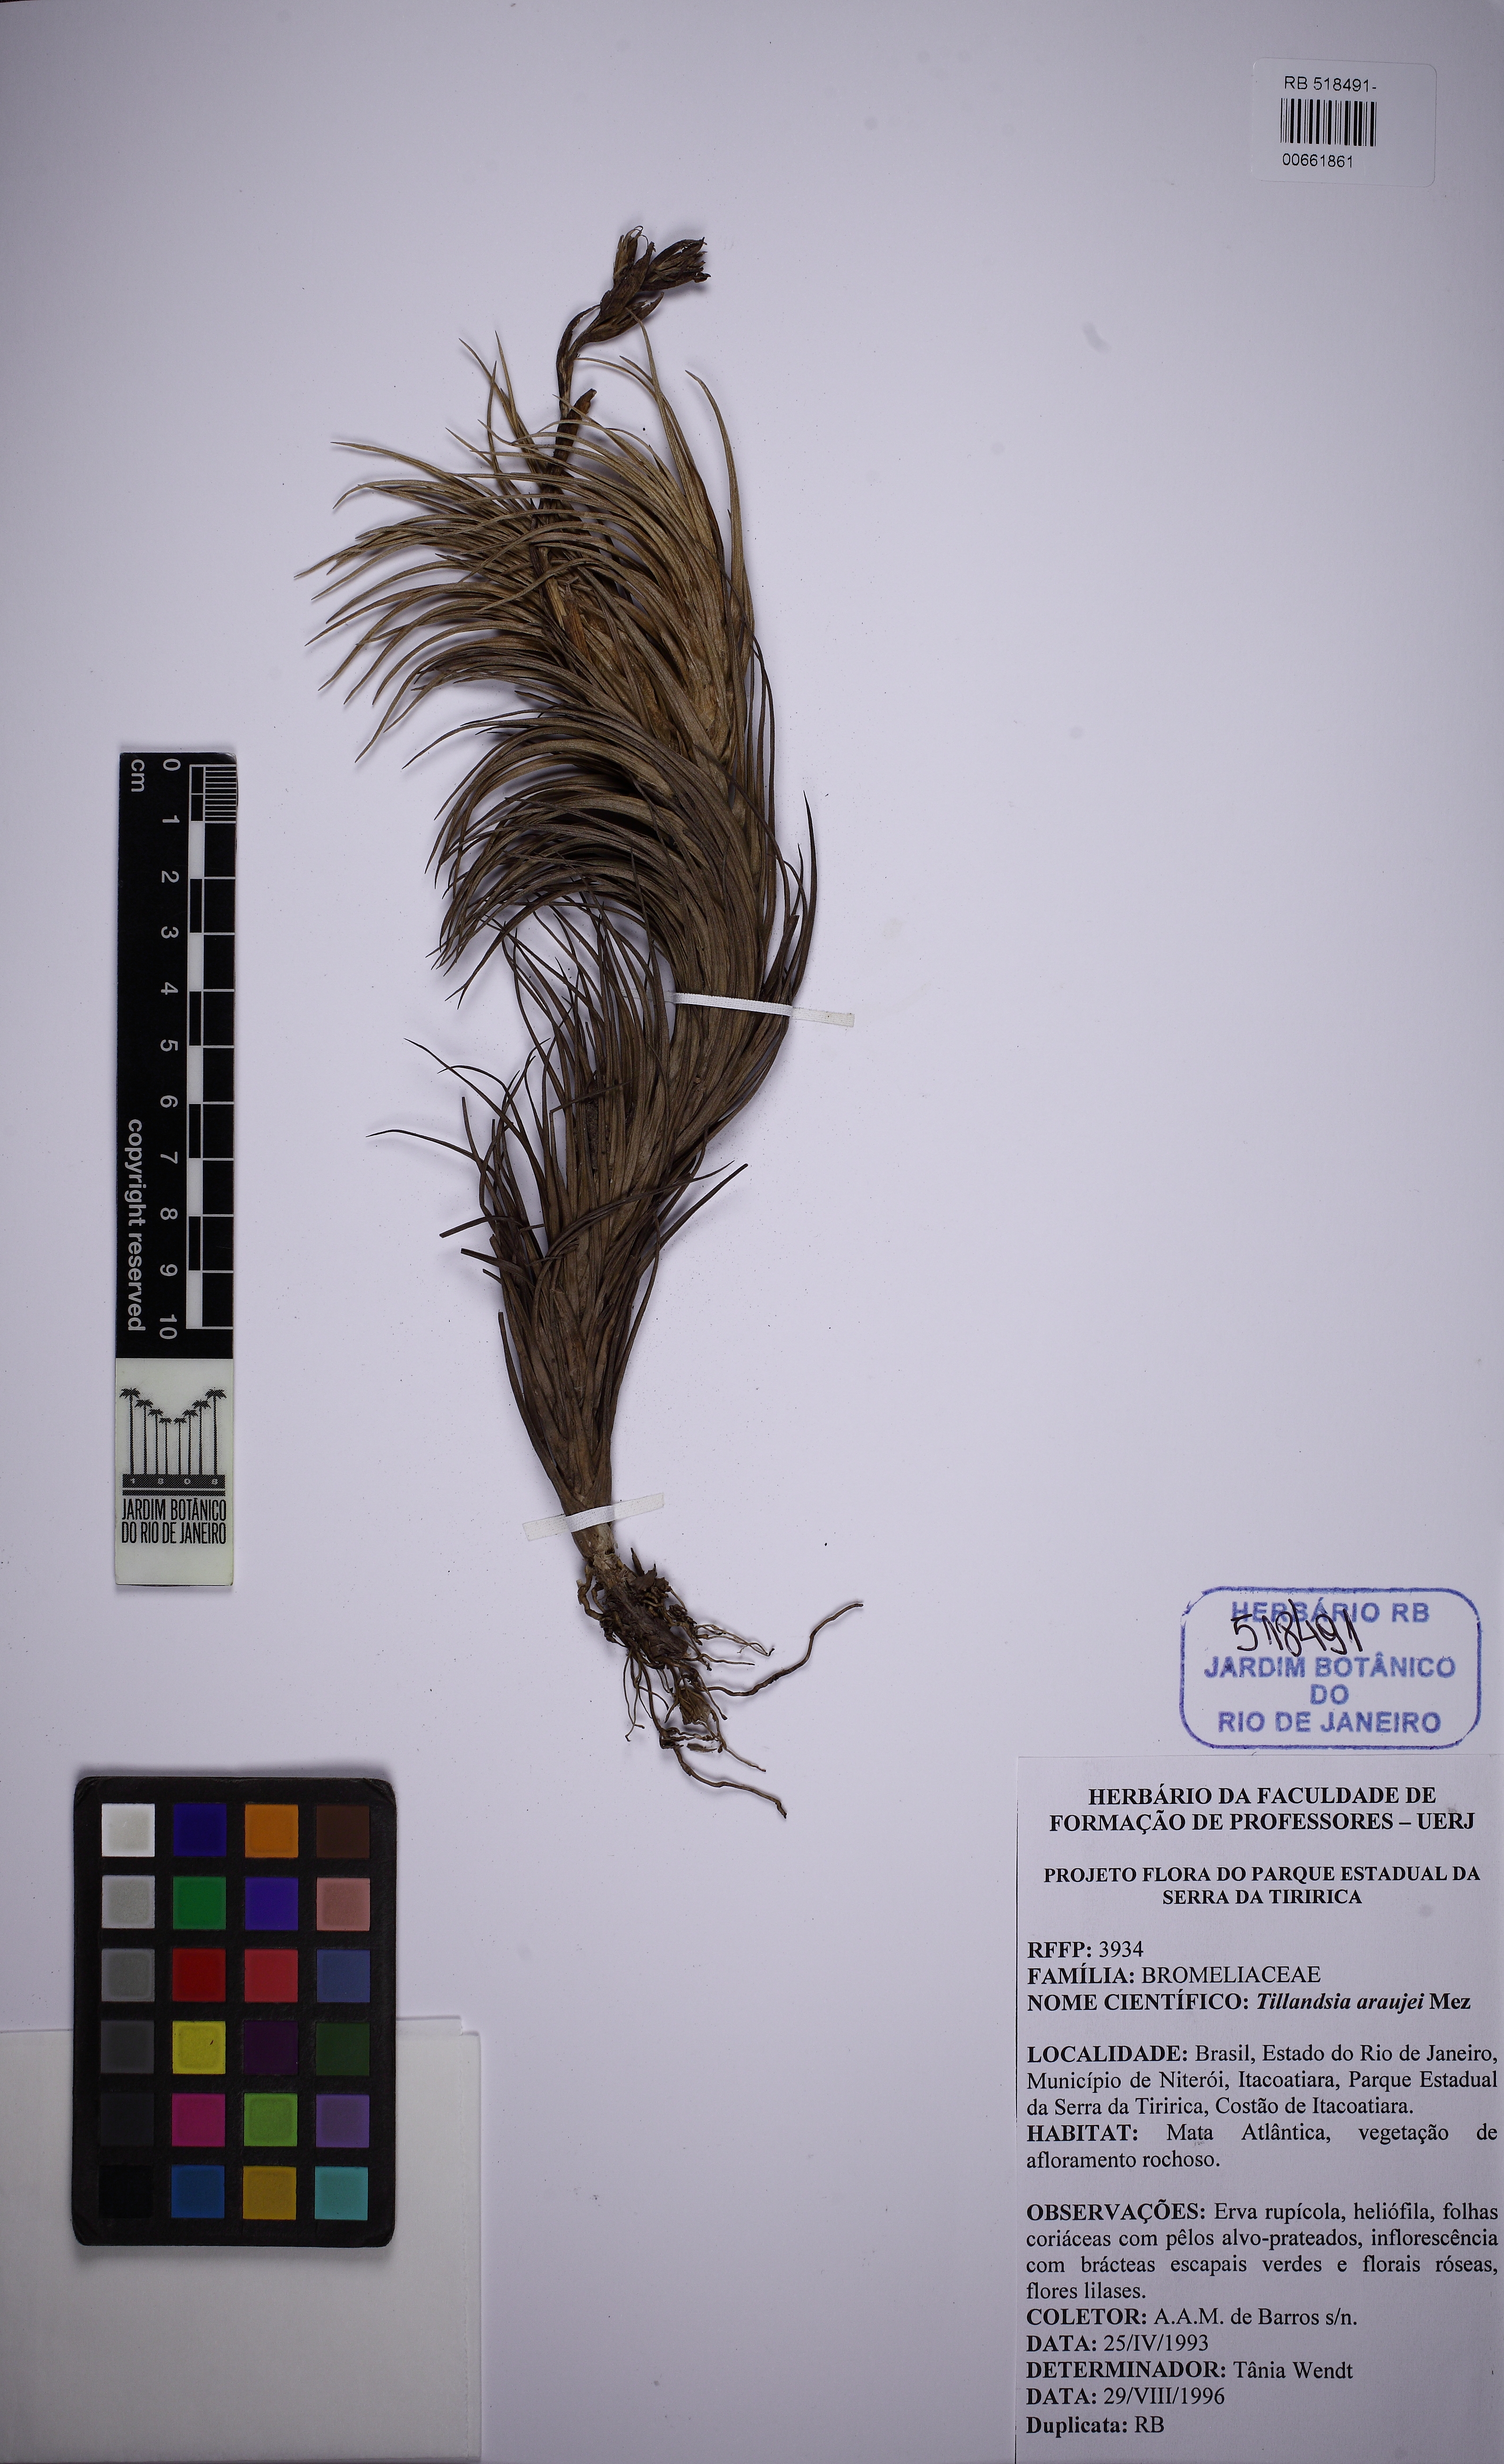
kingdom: Plantae
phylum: Tracheophyta
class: Liliopsida
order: Poales
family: Bromeliaceae
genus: Tillandsia
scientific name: Tillandsia araujei
